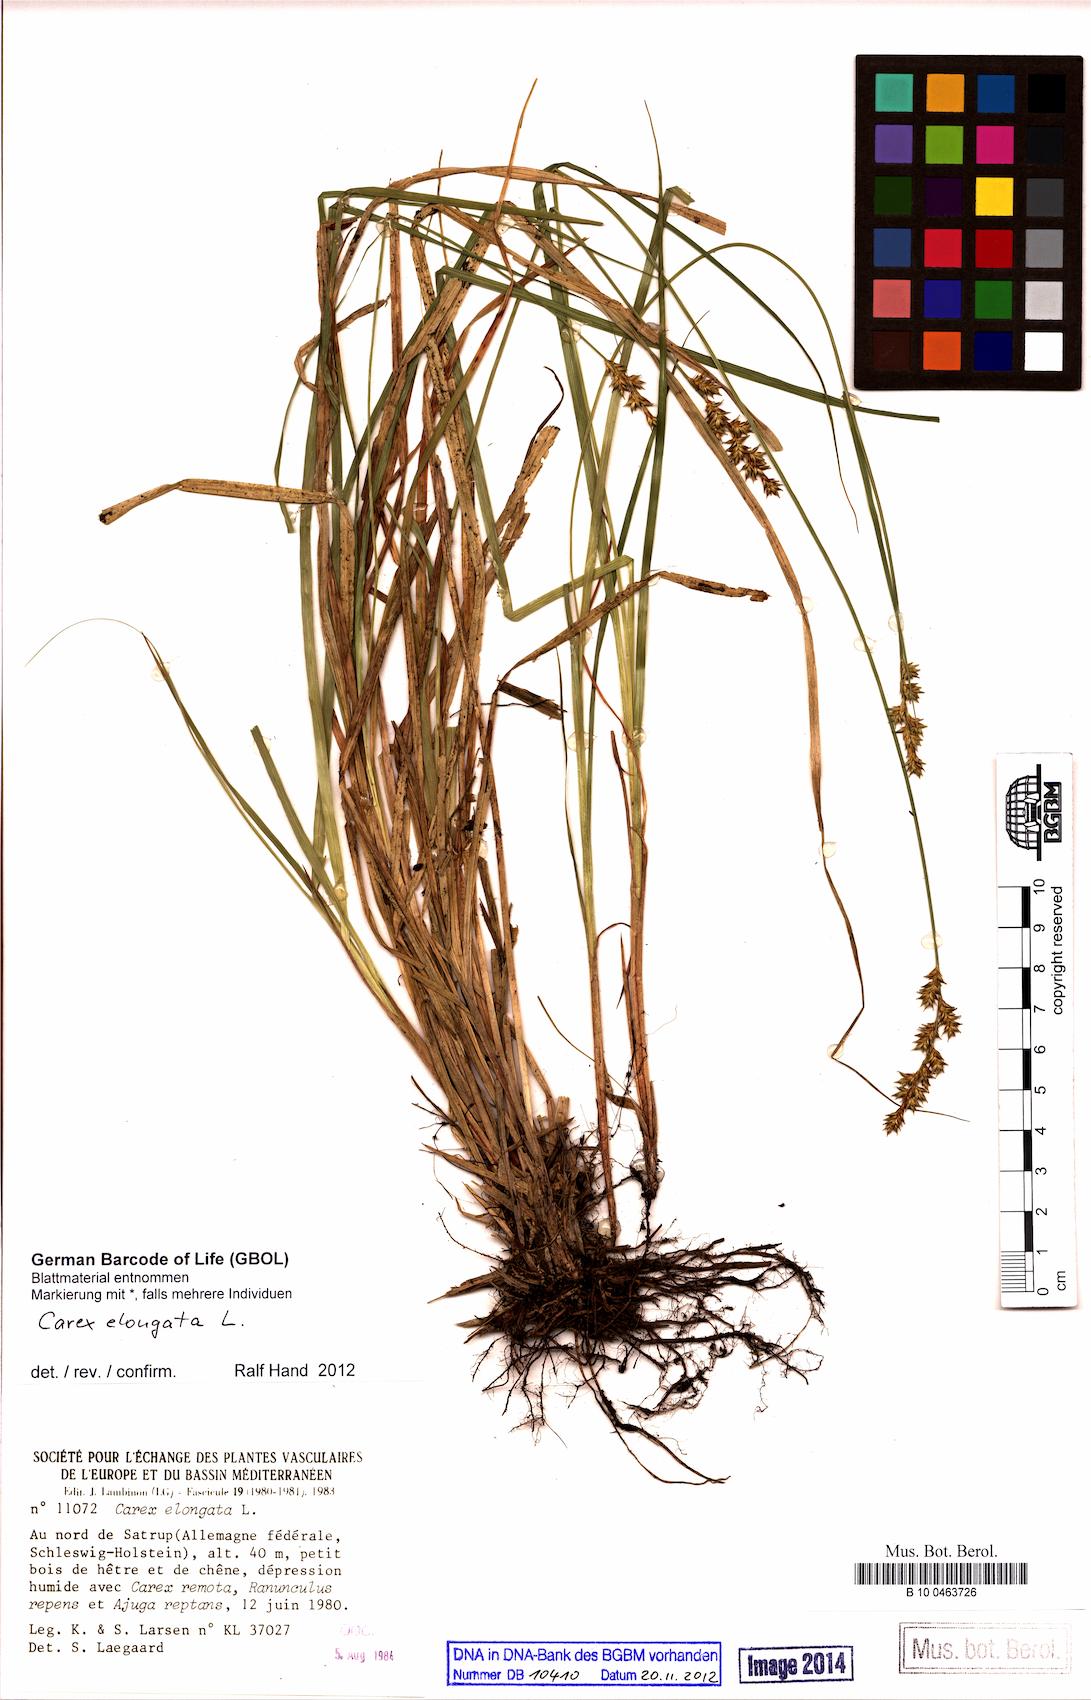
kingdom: Plantae
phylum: Tracheophyta
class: Liliopsida
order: Poales
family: Cyperaceae
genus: Carex
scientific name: Carex elongata
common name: Elongated sedge
